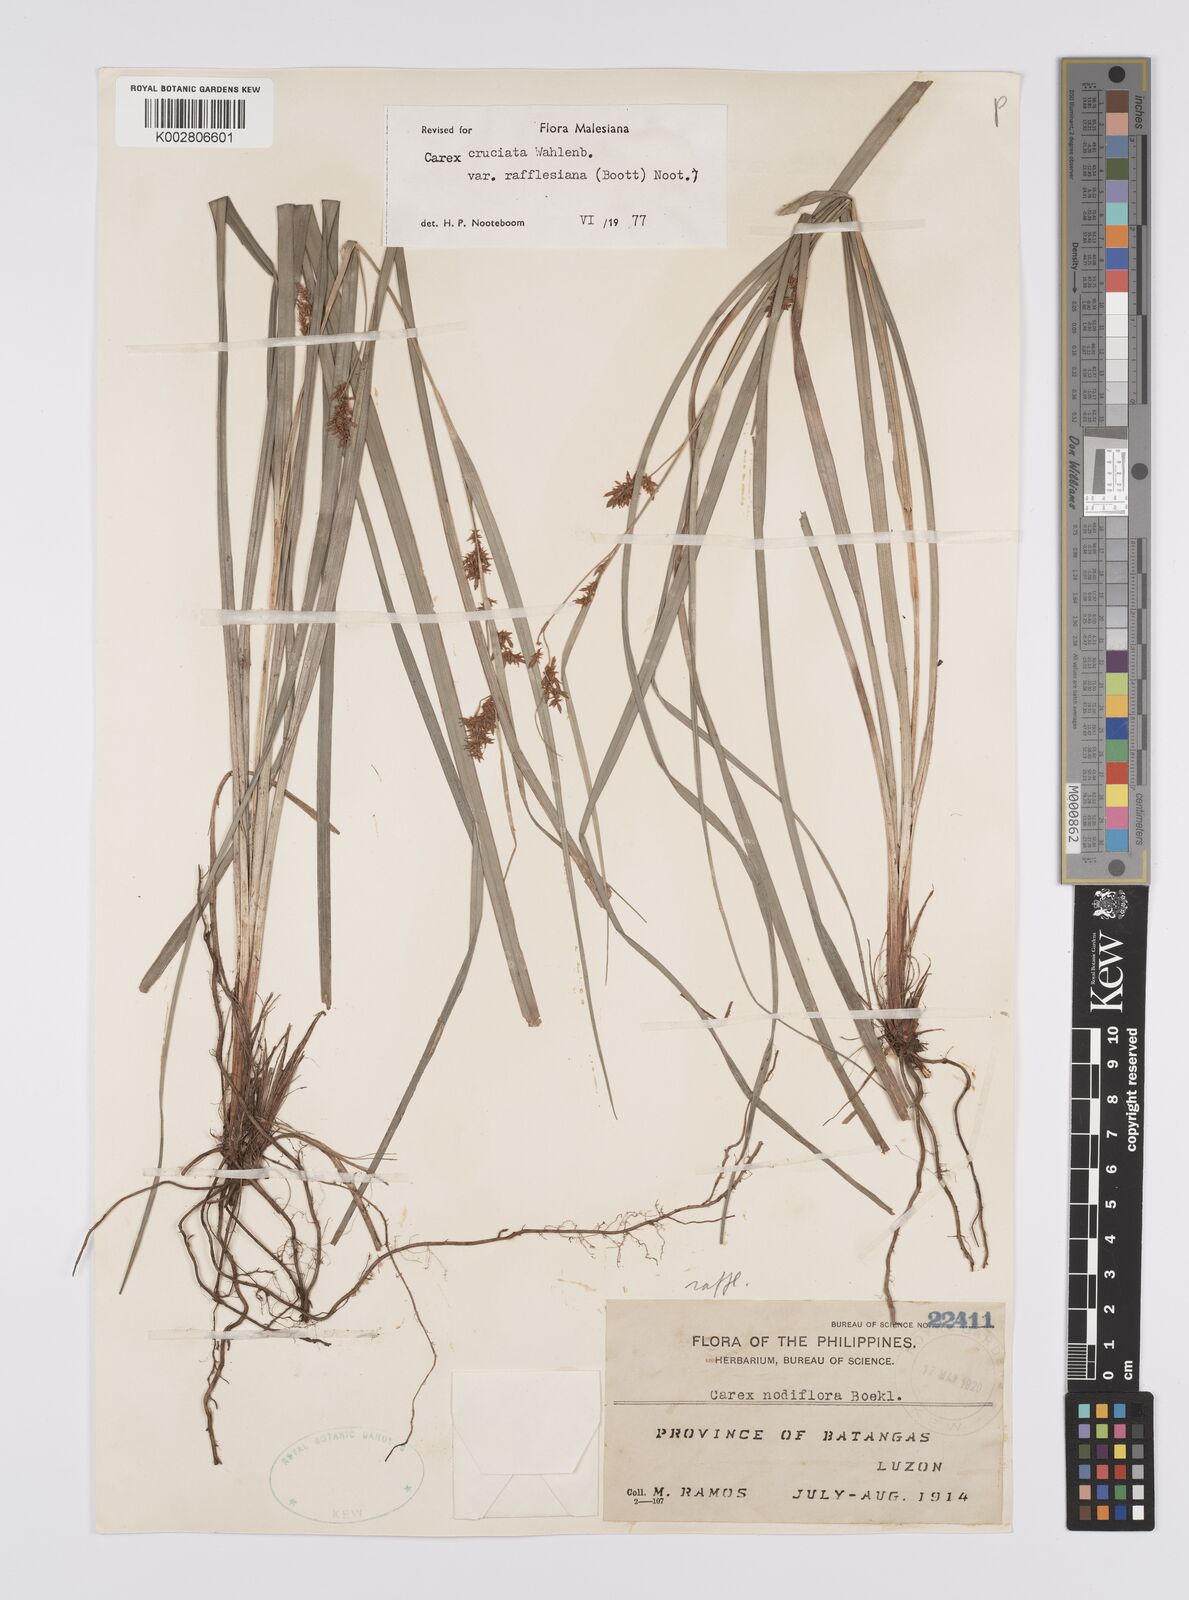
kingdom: Plantae
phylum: Tracheophyta
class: Liliopsida
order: Poales
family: Cyperaceae
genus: Carex
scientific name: Carex rafflesiana
